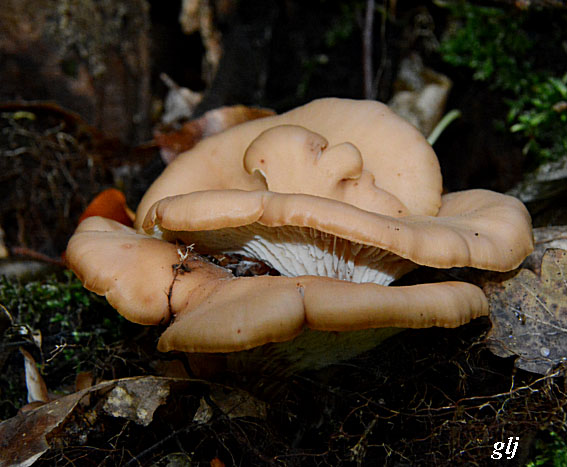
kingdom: Fungi
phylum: Basidiomycota
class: Agaricomycetes
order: Russulales
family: Auriscalpiaceae
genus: Lentinellus
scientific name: Lentinellus cochleatus
